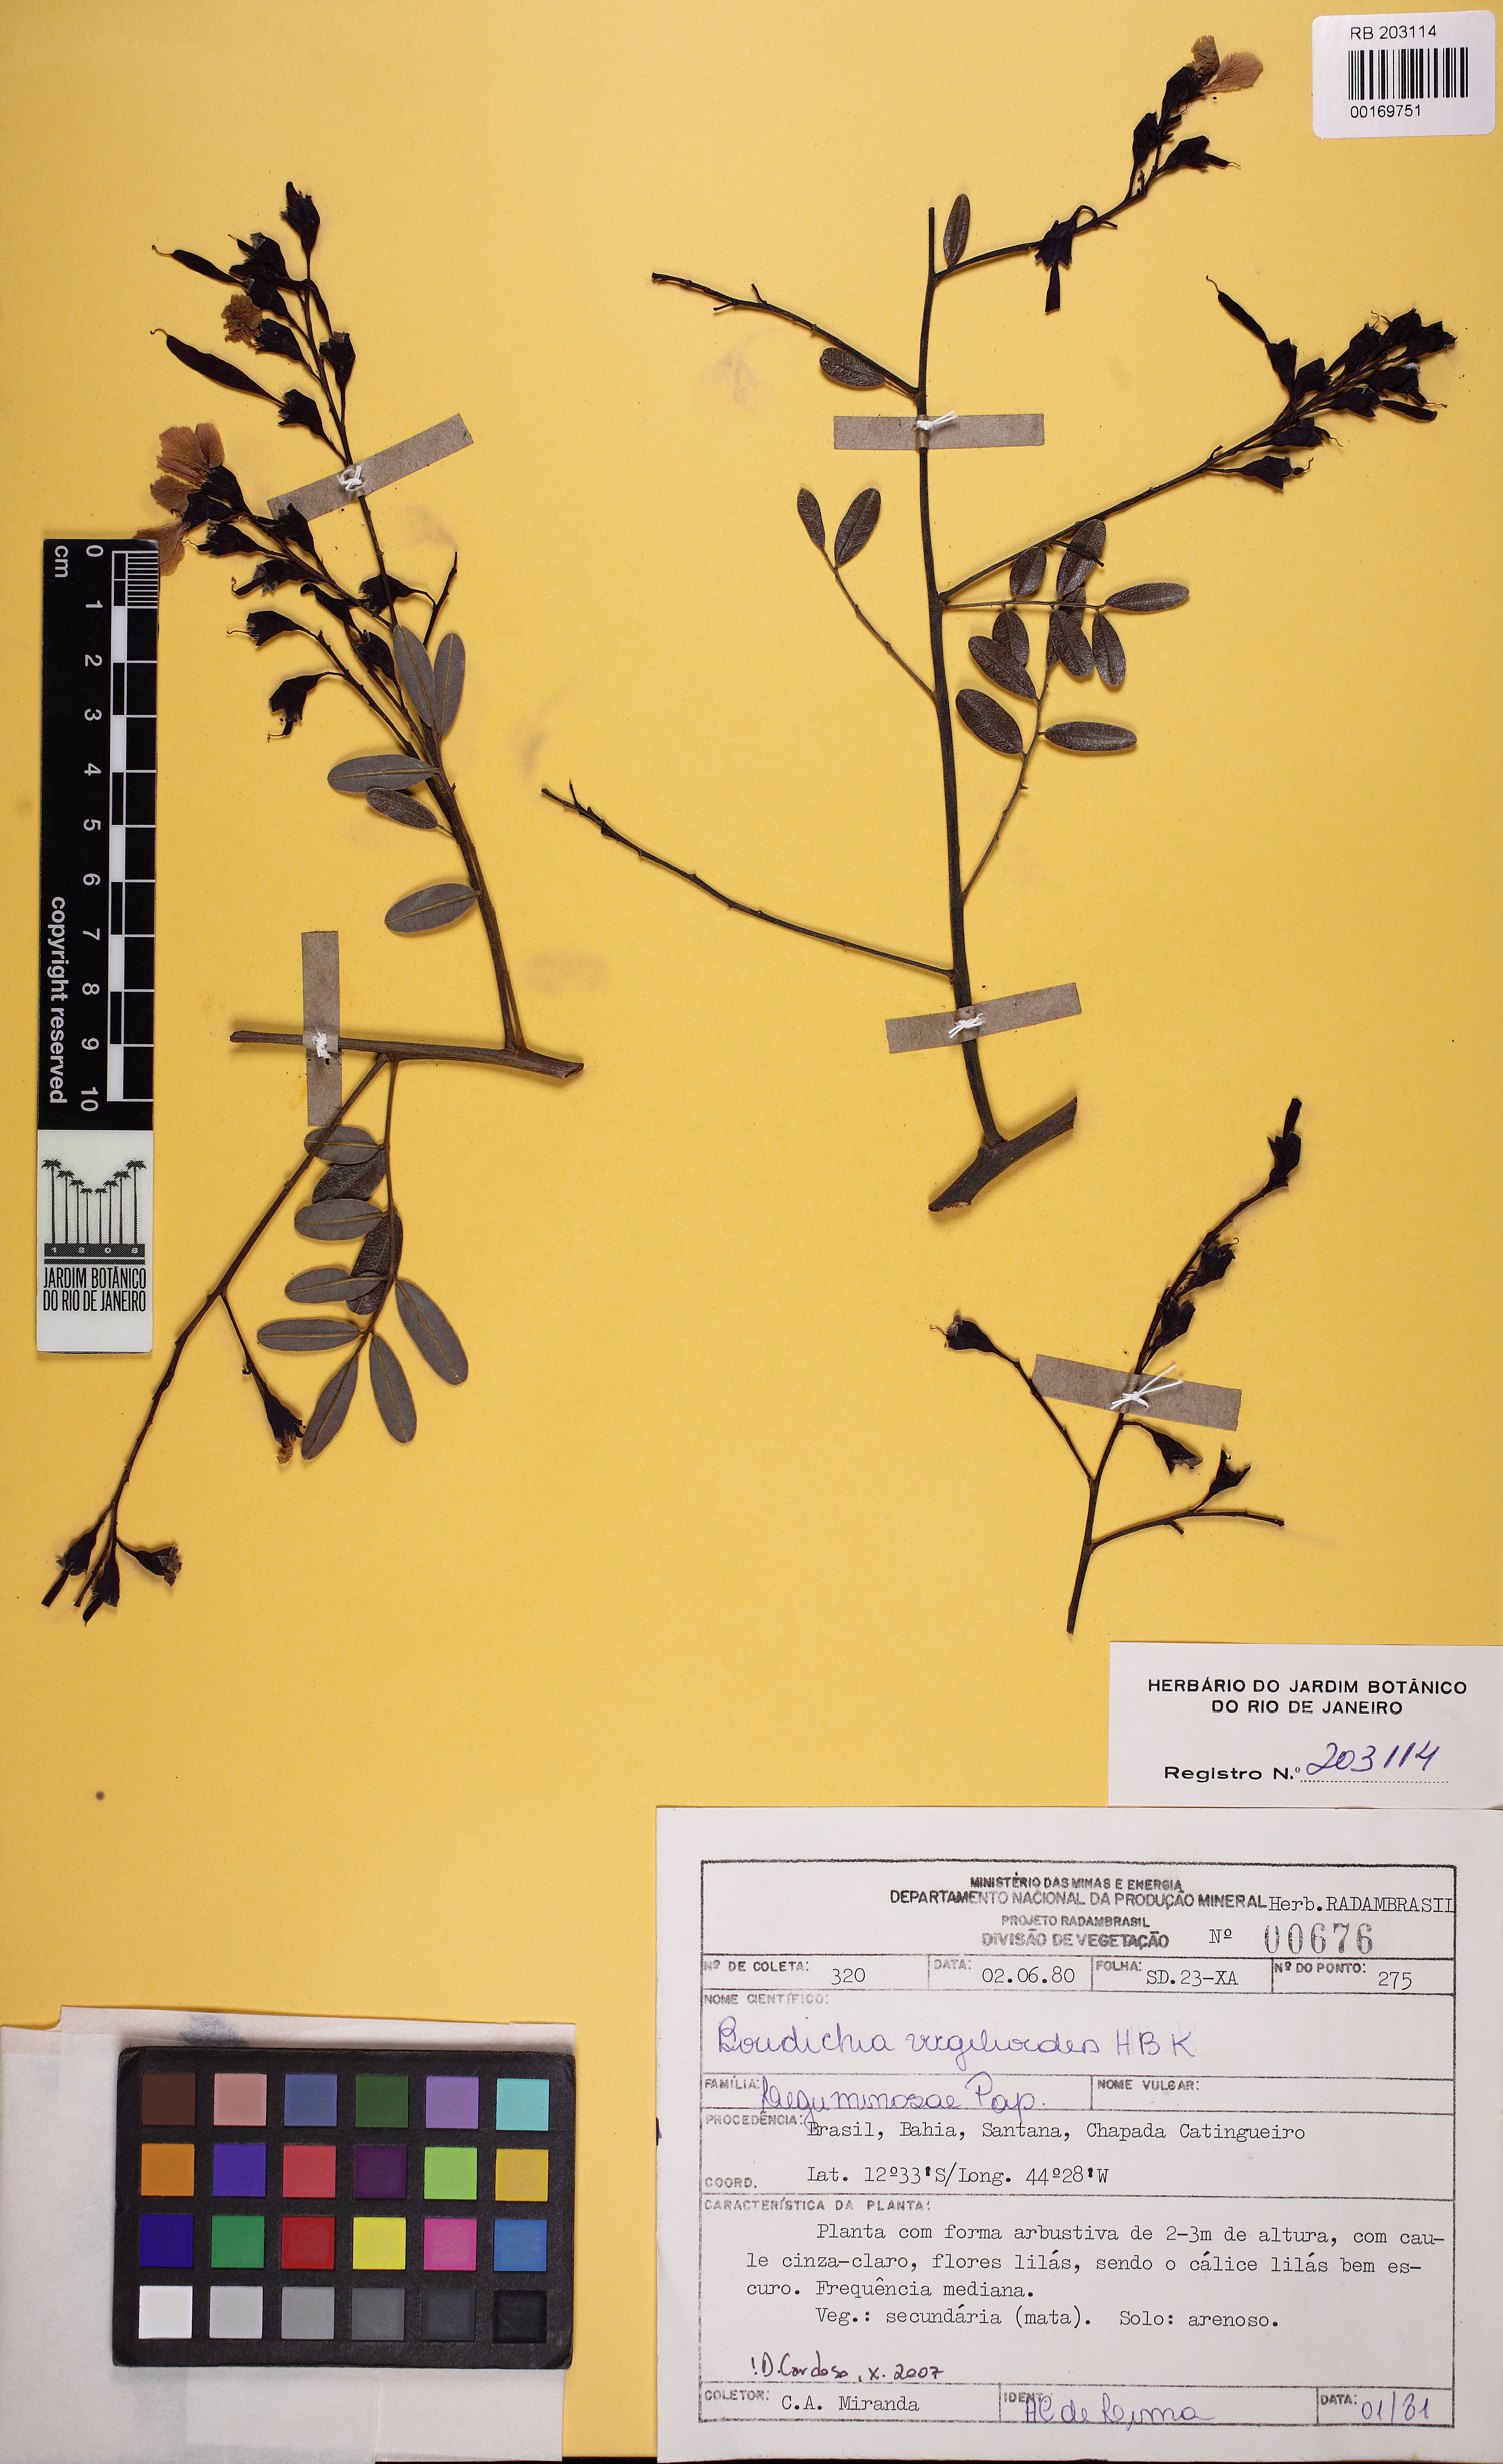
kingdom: Plantae
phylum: Tracheophyta
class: Magnoliopsida
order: Fabales
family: Fabaceae
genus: Bowdichia
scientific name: Bowdichia virgilioides
